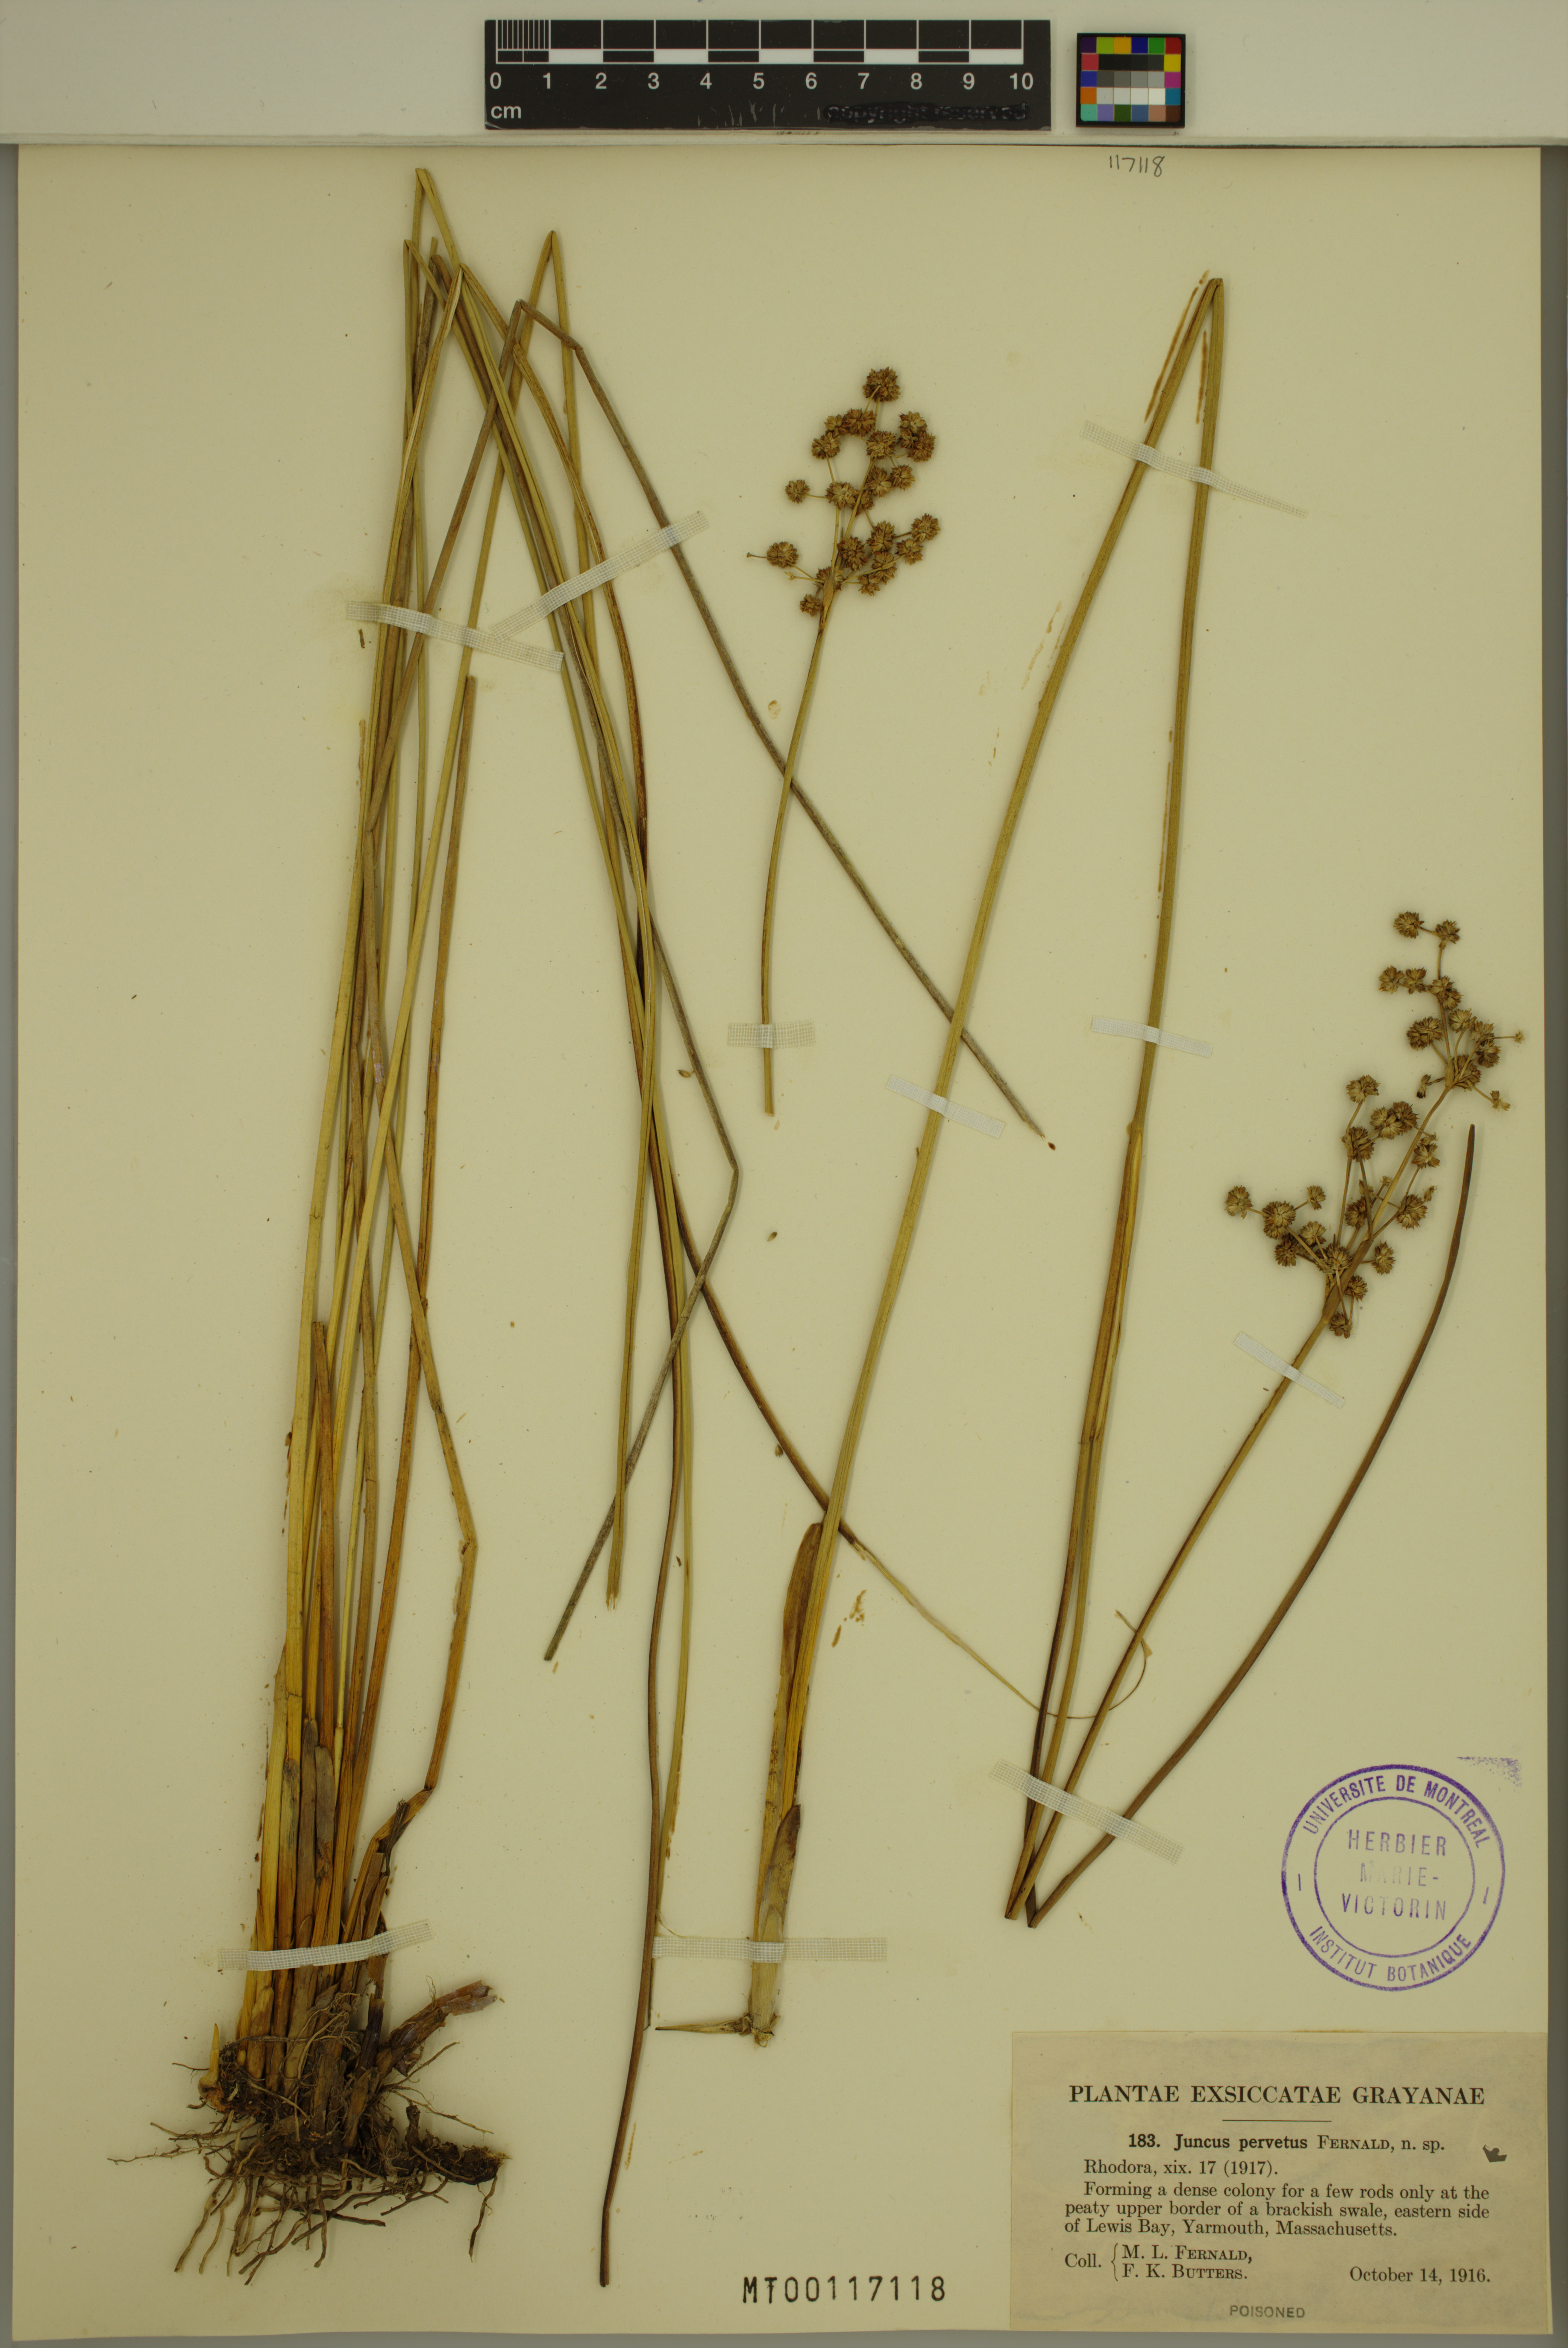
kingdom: Plantae
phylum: Tracheophyta
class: Liliopsida
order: Poales
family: Juncaceae
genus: Juncus
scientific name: Juncus subnodulosus
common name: Blunt-flowered rush
